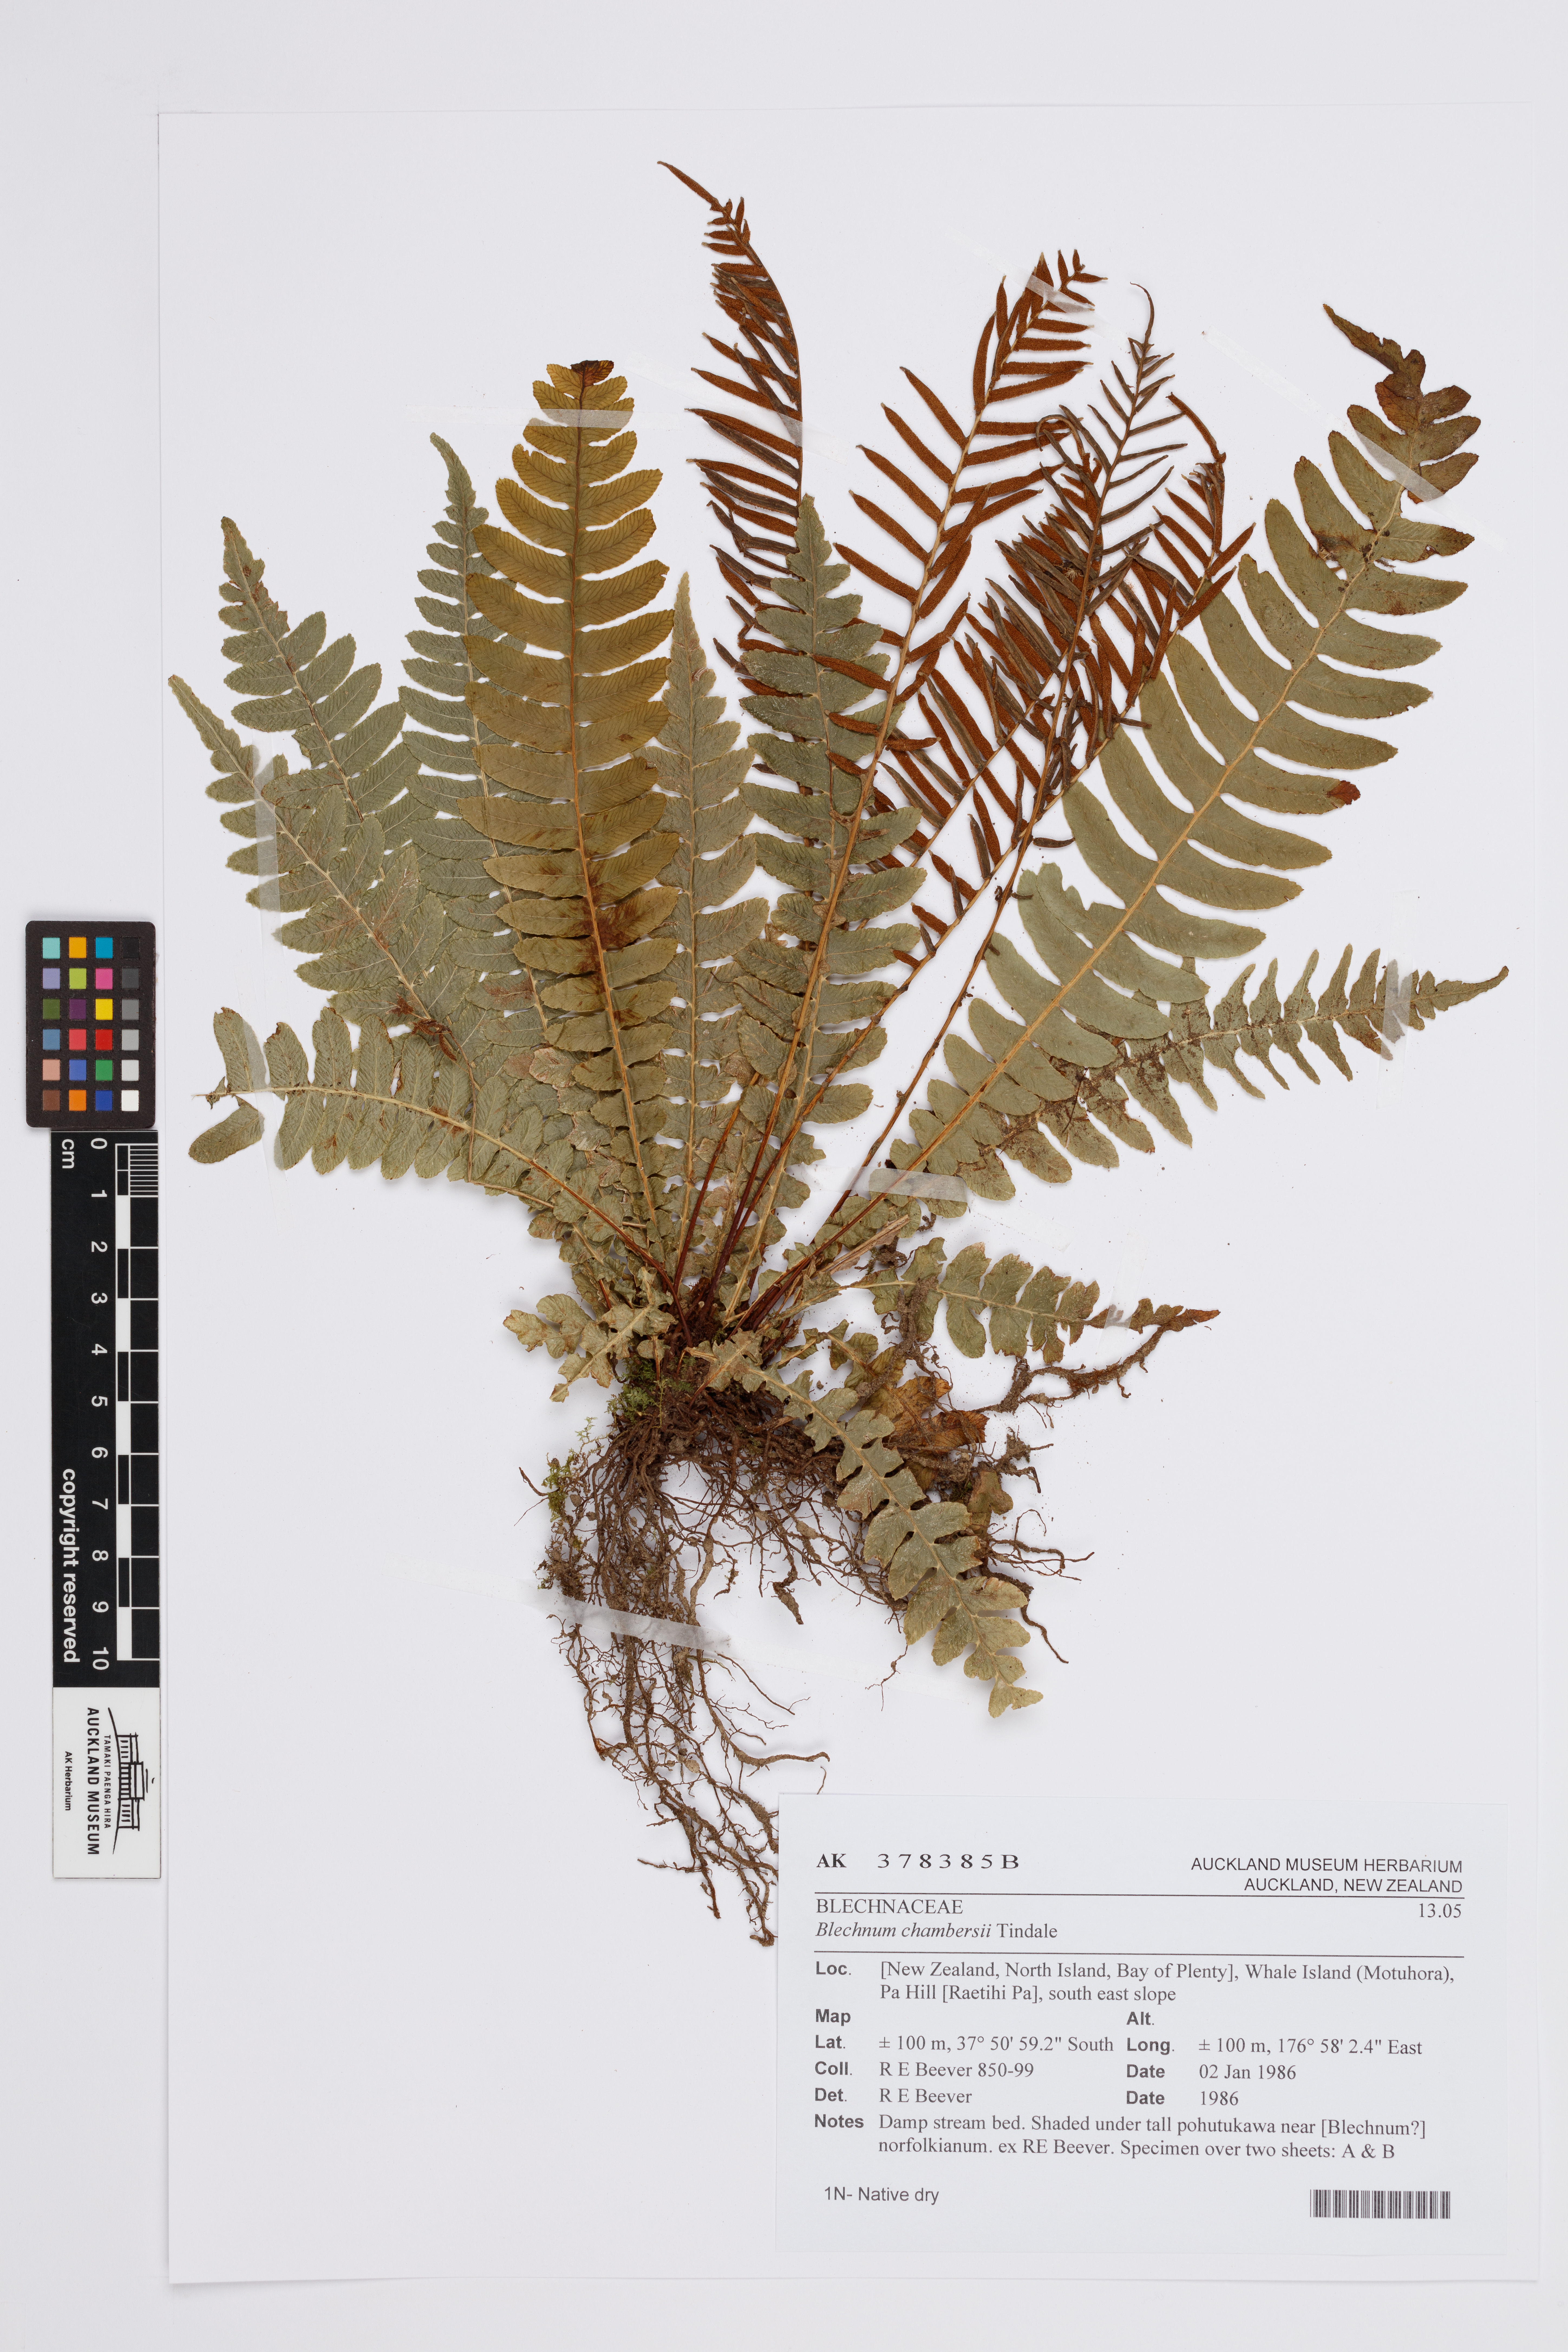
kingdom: Plantae
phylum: Tracheophyta
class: Polypodiopsida
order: Polypodiales
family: Blechnaceae
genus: Austroblechnum
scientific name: Austroblechnum lanceolatum
